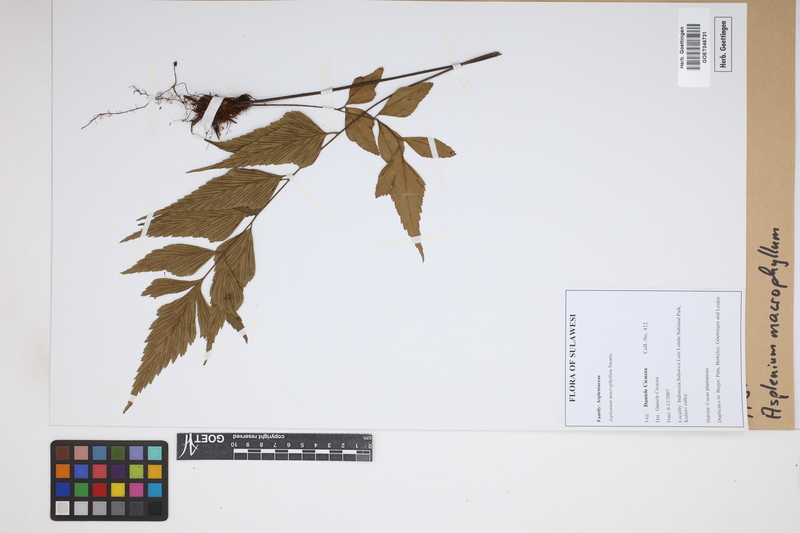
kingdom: Plantae
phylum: Tracheophyta
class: Polypodiopsida
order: Polypodiales
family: Aspleniaceae
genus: Asplenium
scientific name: Asplenium macrophyllum
